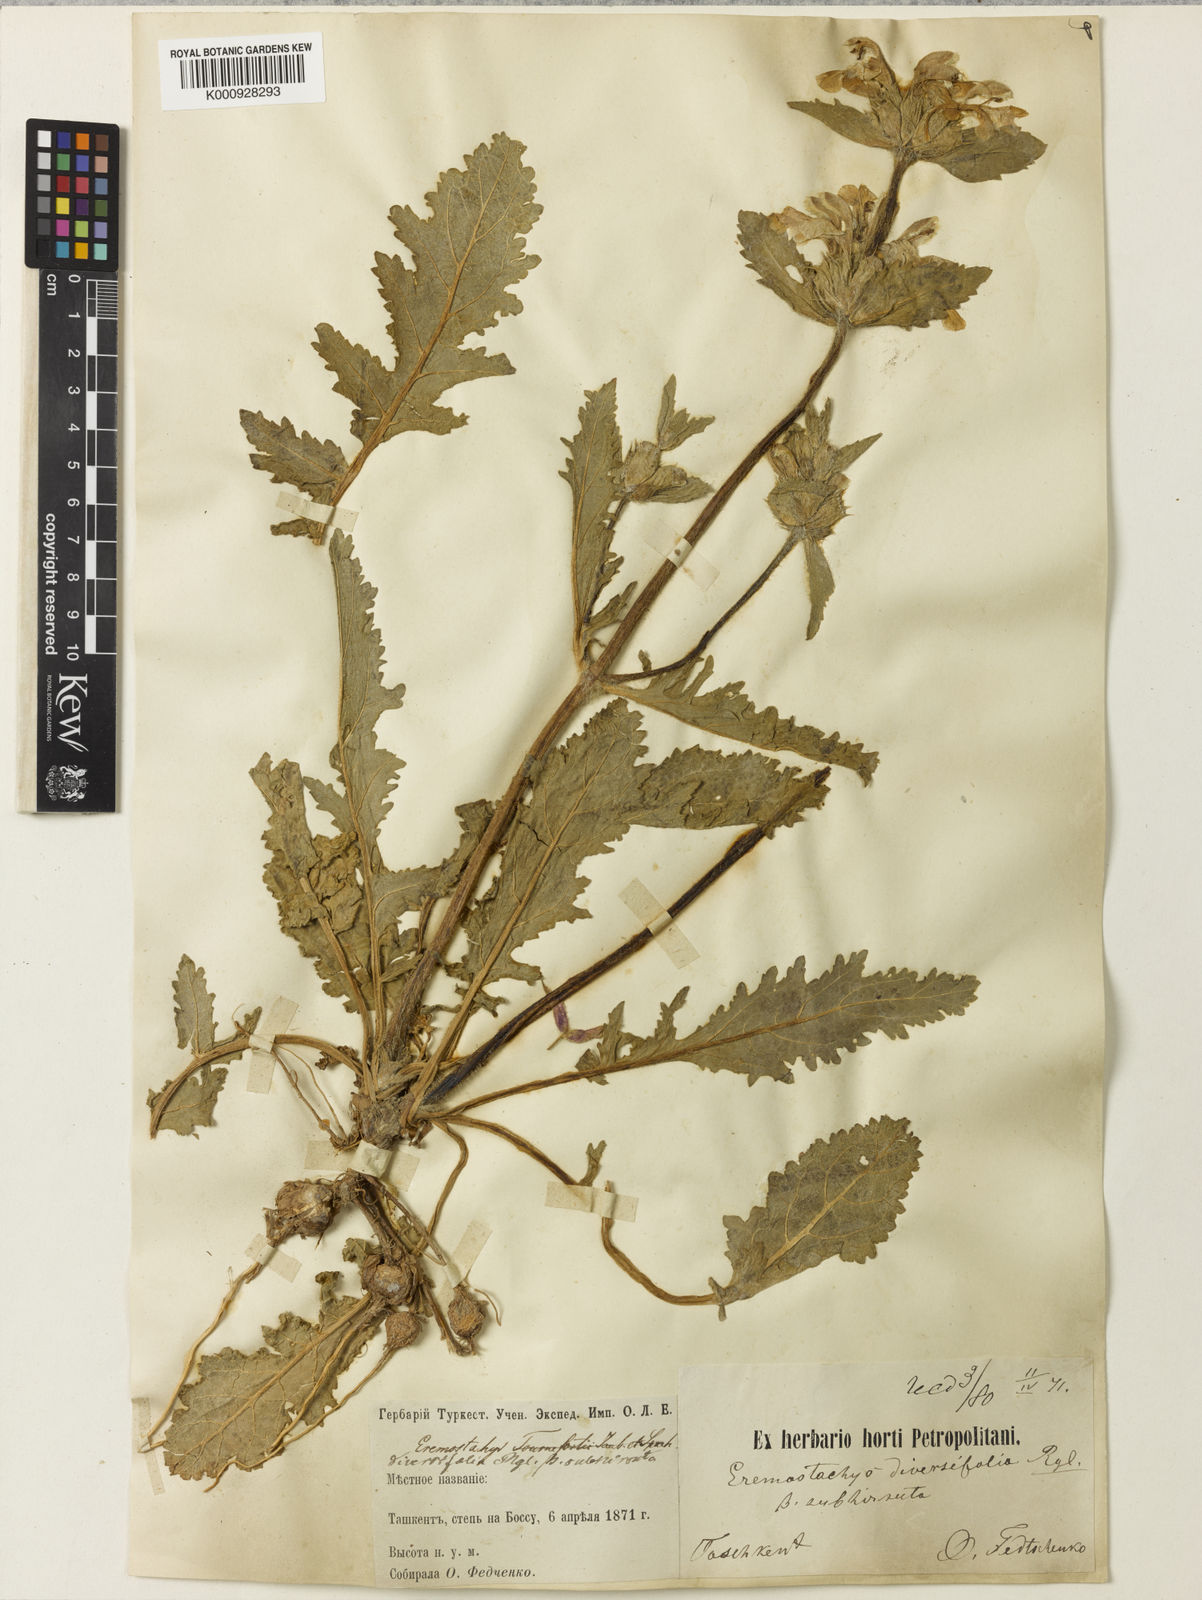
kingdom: Plantae
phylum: Tracheophyta
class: Magnoliopsida
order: Lamiales
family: Lamiaceae
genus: Phlomoides
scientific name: Phlomoides labiosa
